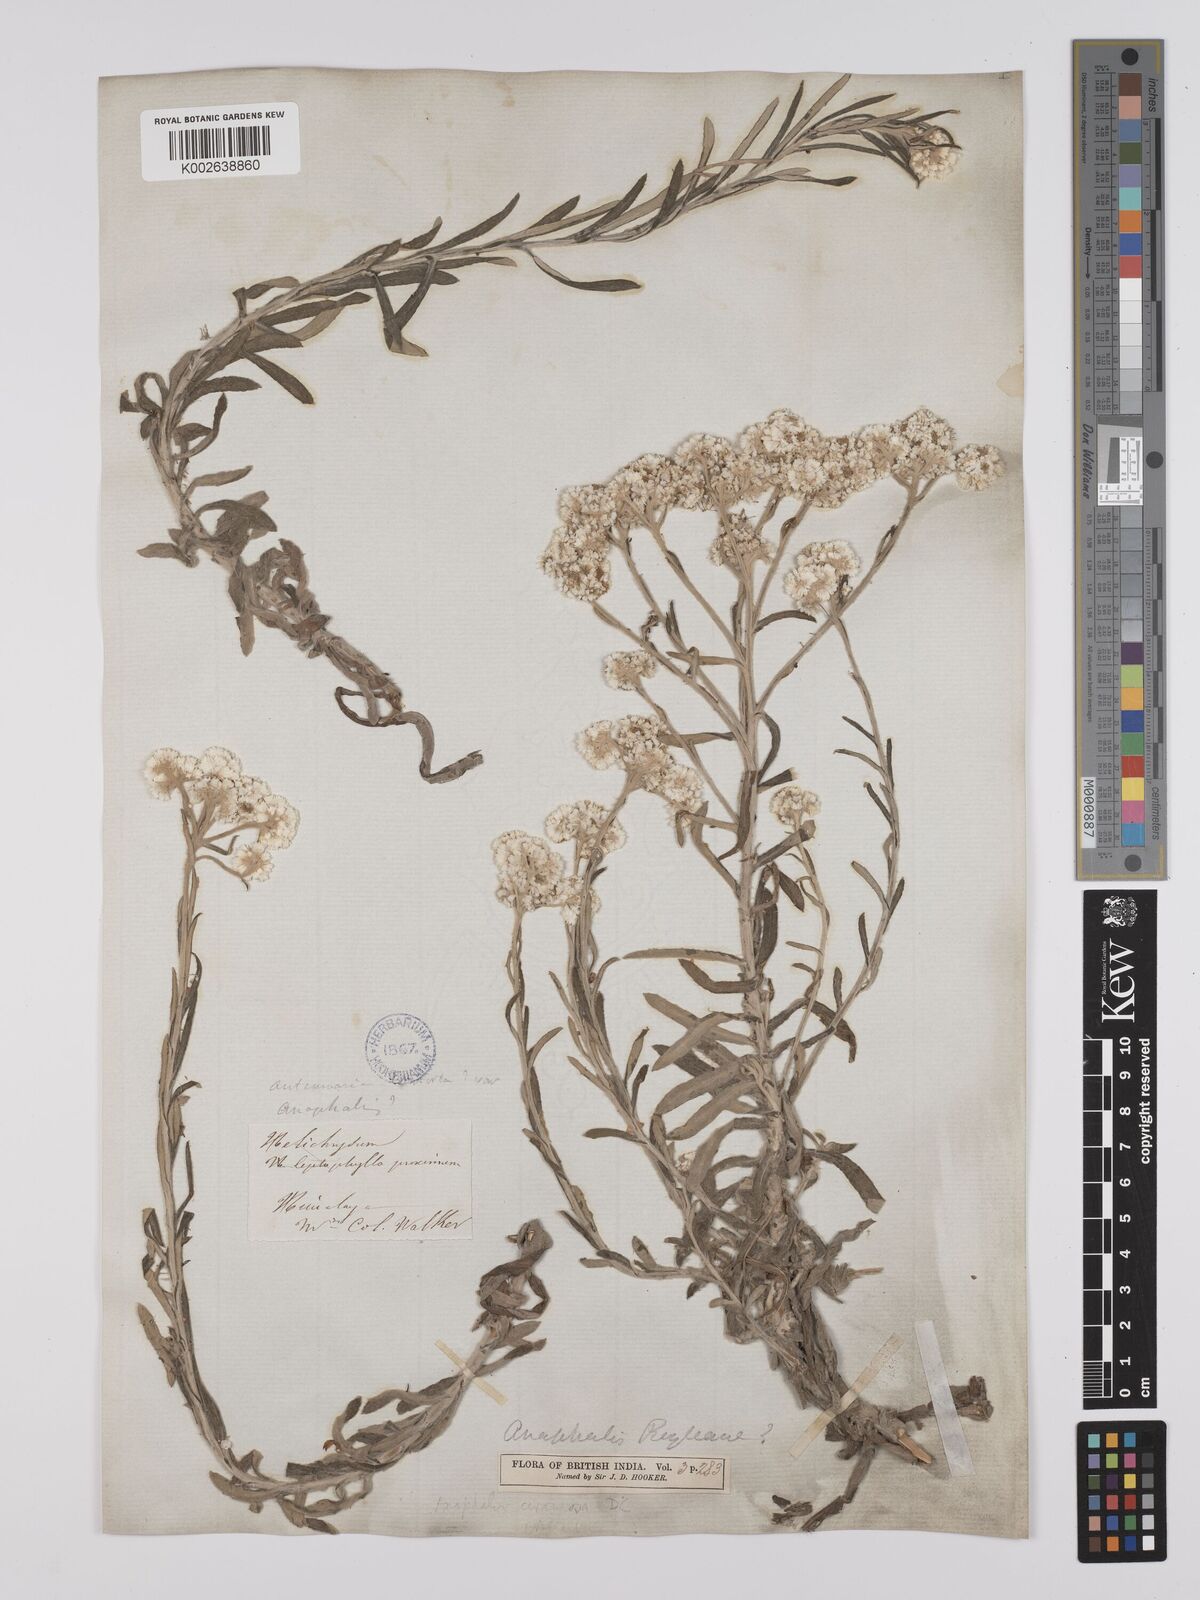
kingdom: Plantae
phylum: Tracheophyta
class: Magnoliopsida
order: Asterales
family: Asteraceae
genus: Anaphalis
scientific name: Anaphalis busua
